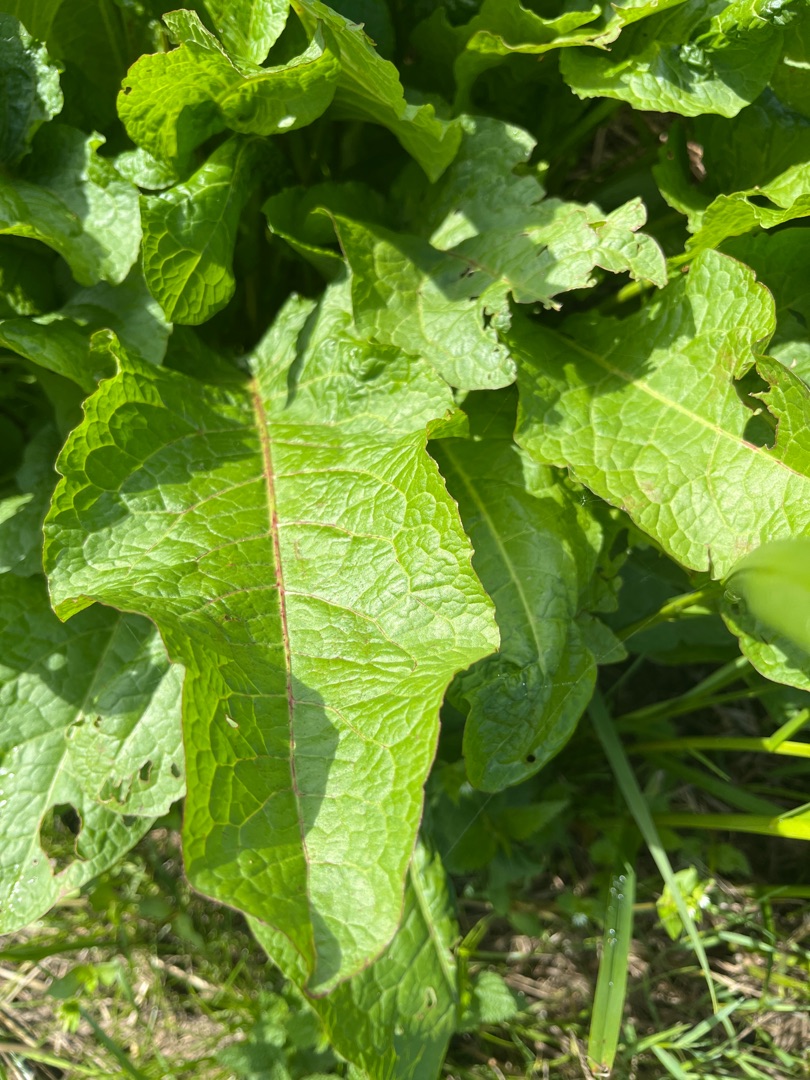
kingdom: Plantae
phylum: Tracheophyta
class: Magnoliopsida
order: Caryophyllales
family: Polygonaceae
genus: Rumex
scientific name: Rumex obtusifolius
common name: Butbladet skræppe
